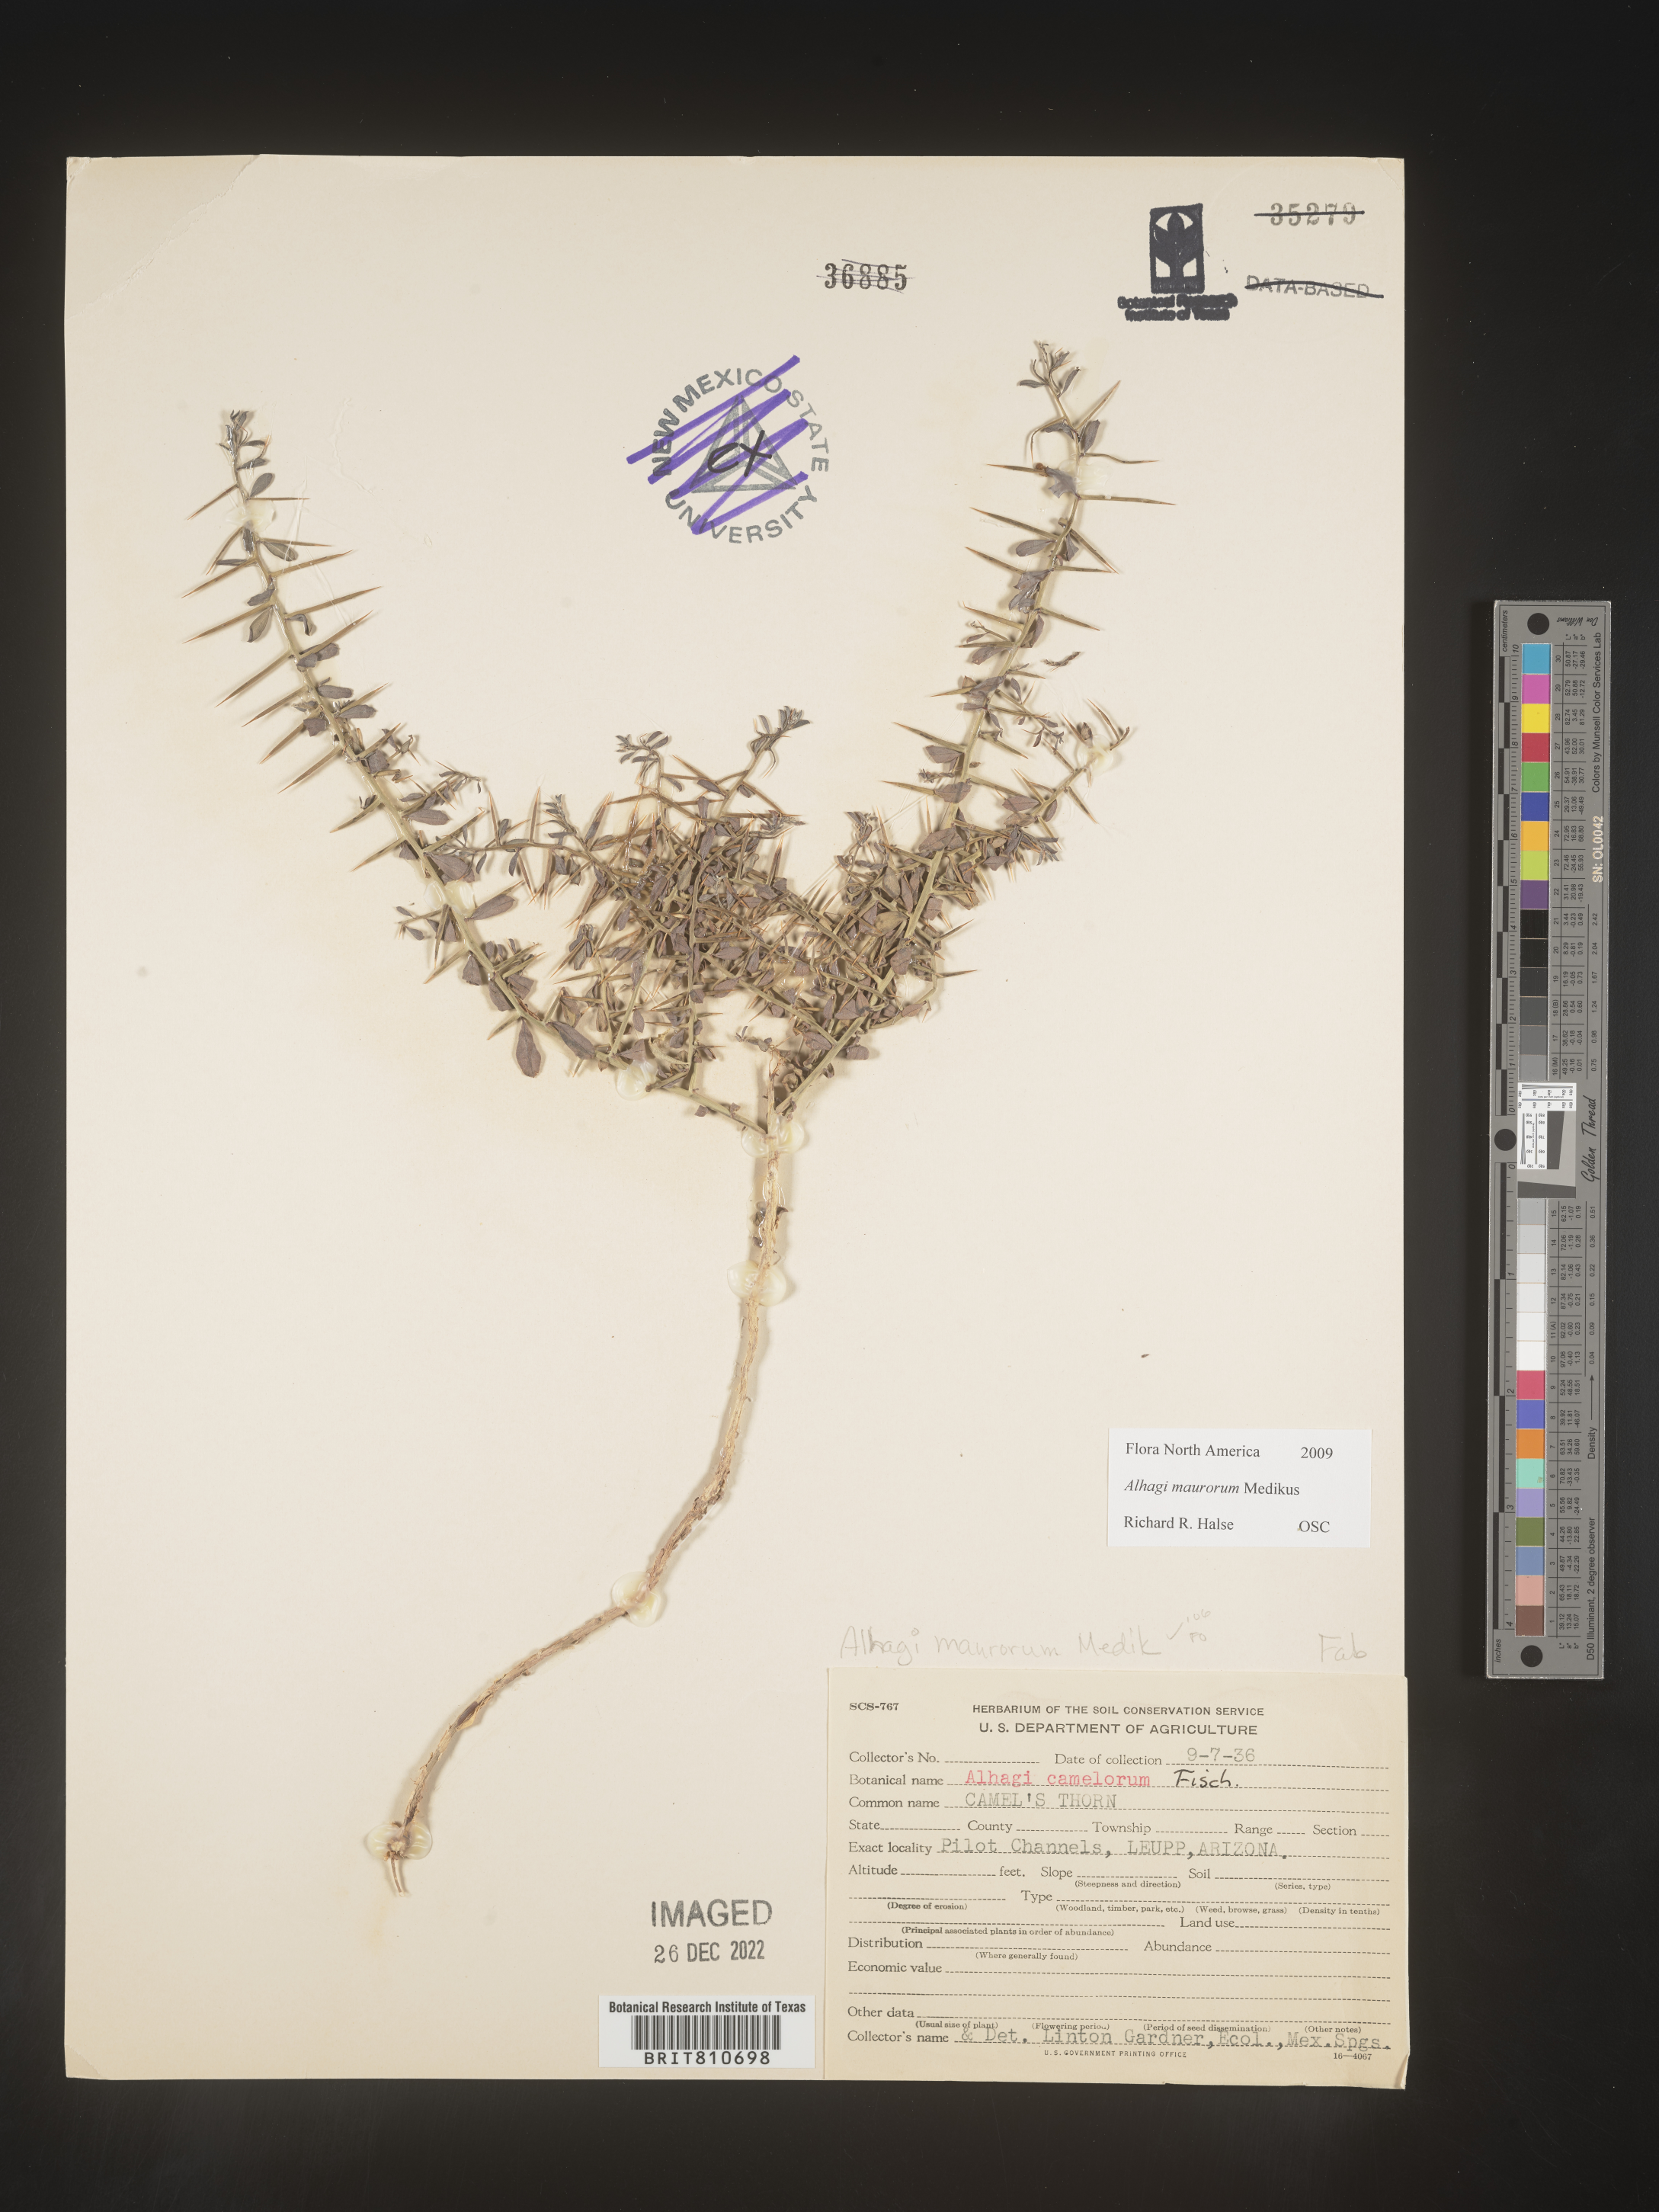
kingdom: Plantae
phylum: Tracheophyta
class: Magnoliopsida
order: Fabales
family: Fabaceae
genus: Alhagi
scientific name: Alhagi
